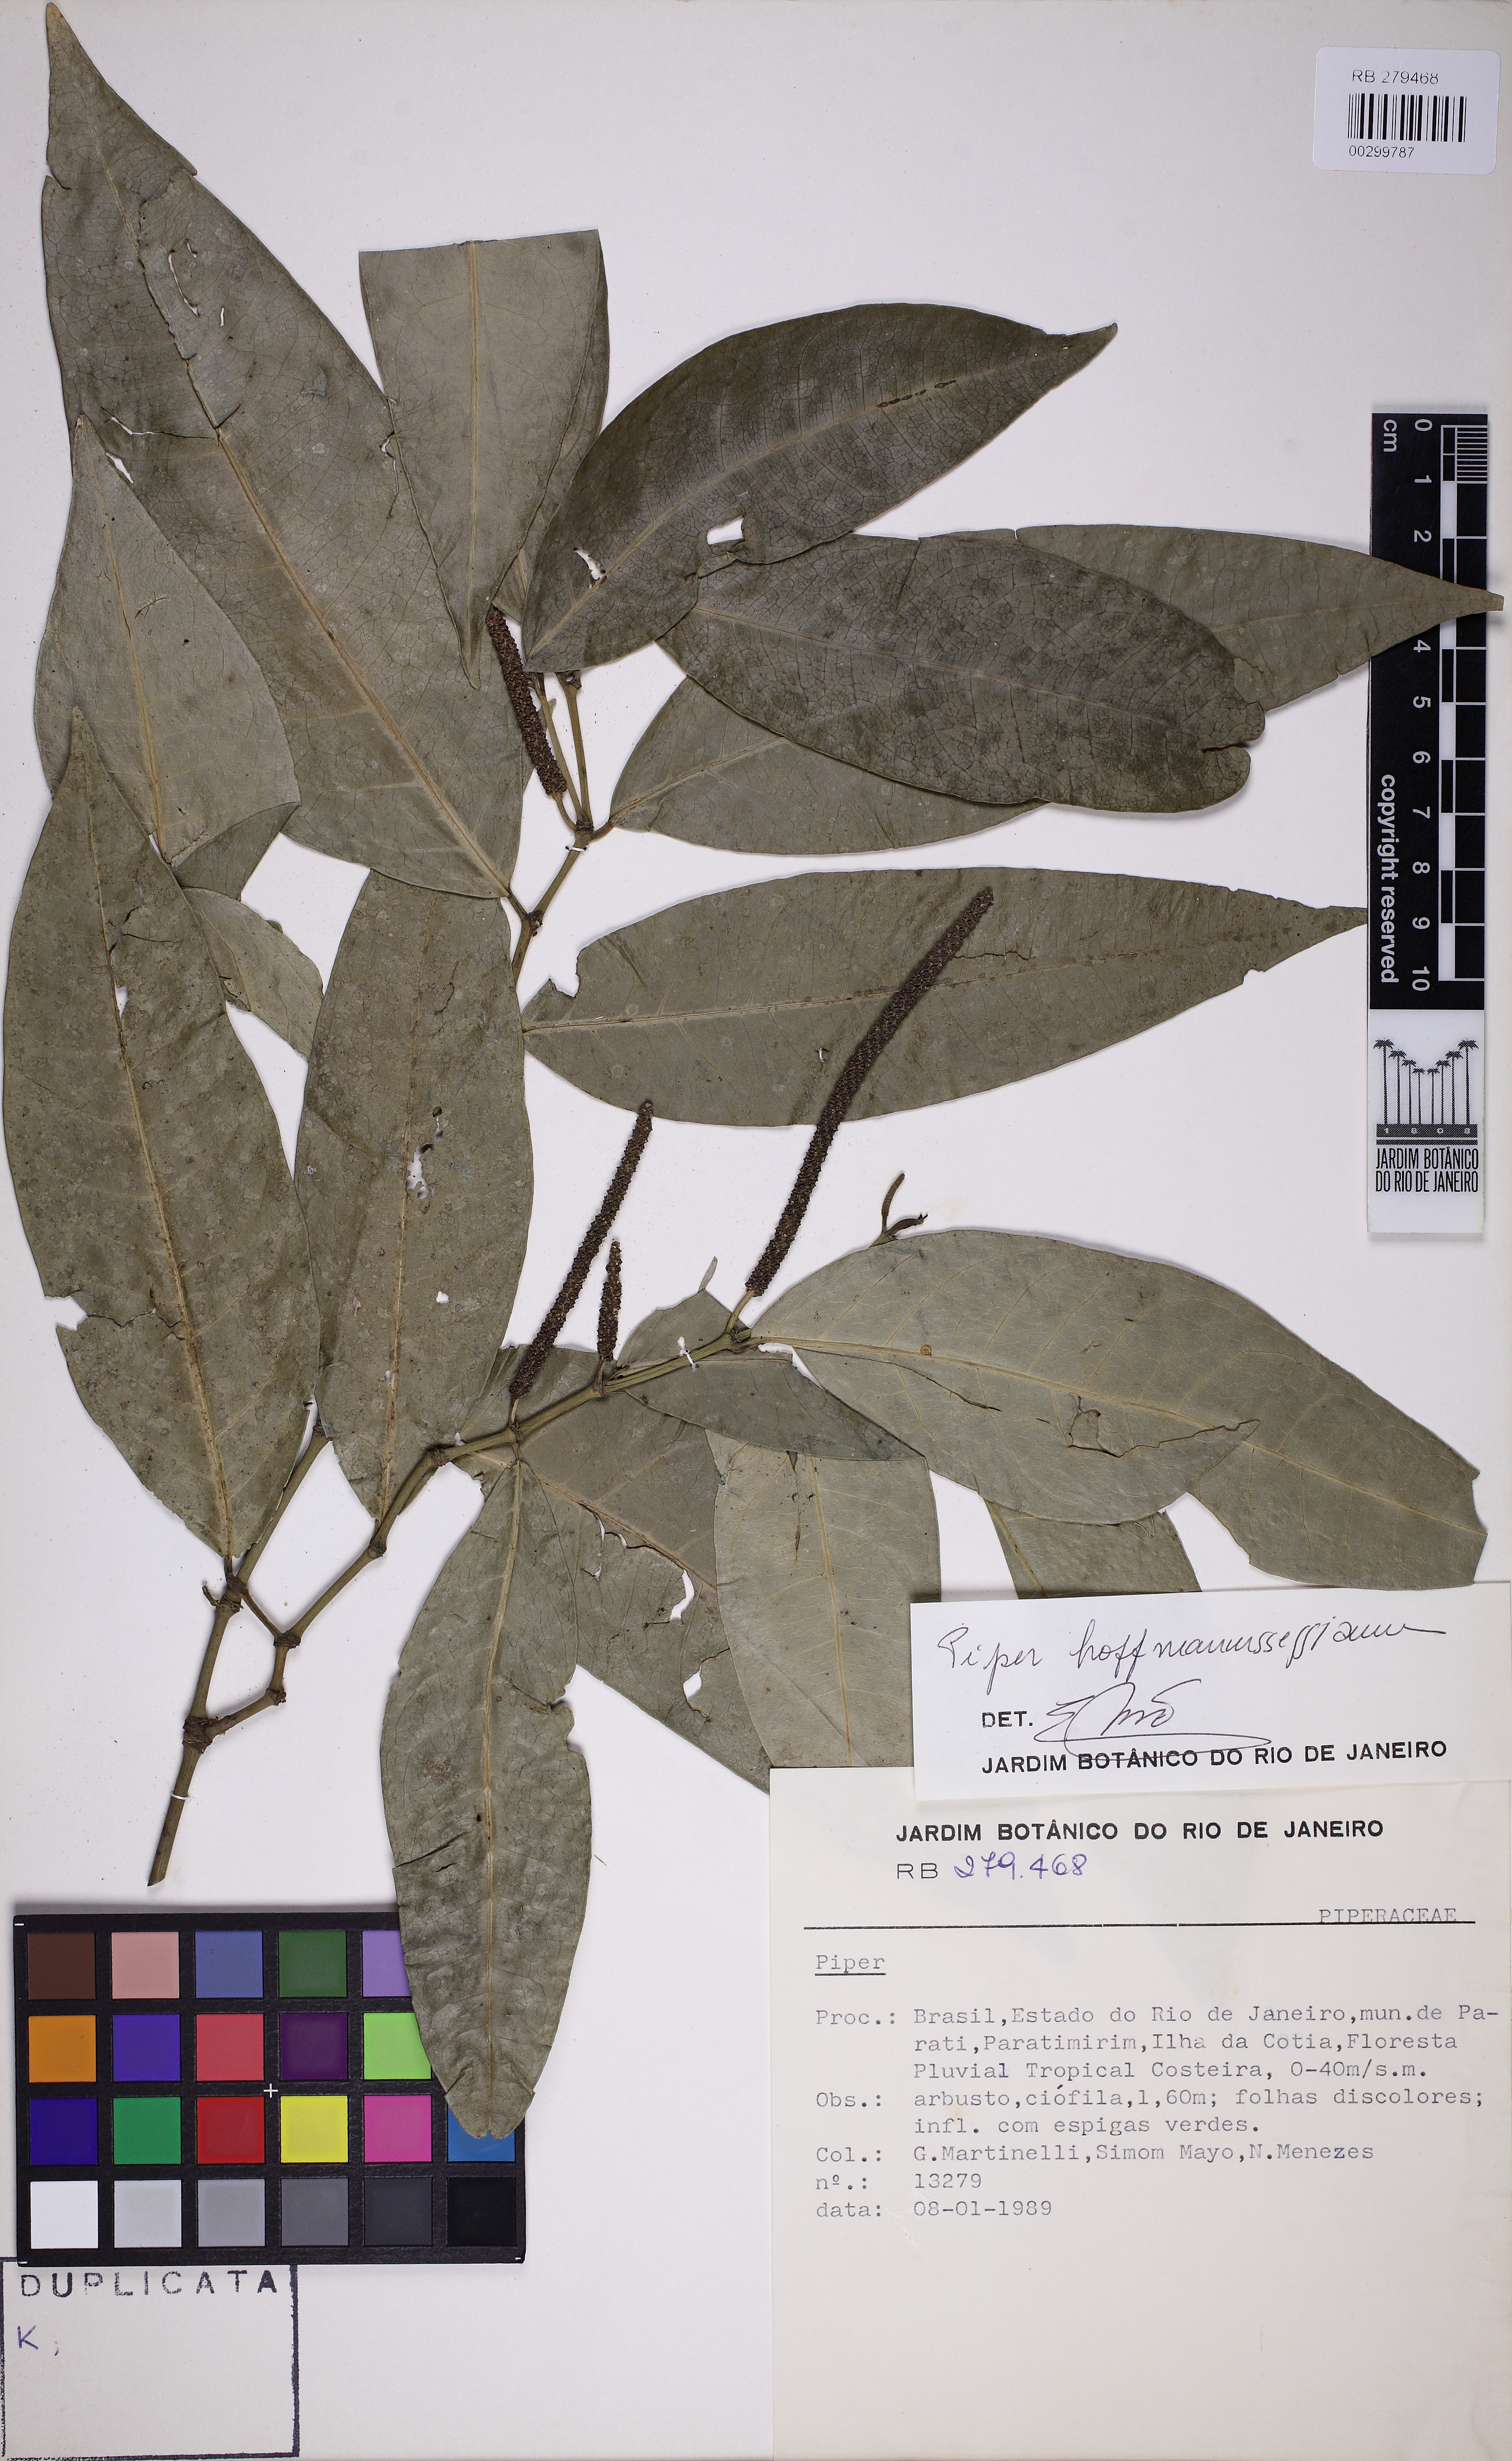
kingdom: Plantae
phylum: Tracheophyta
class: Magnoliopsida
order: Piperales
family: Piperaceae
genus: Piper
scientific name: Piper hoffmannseggianum
